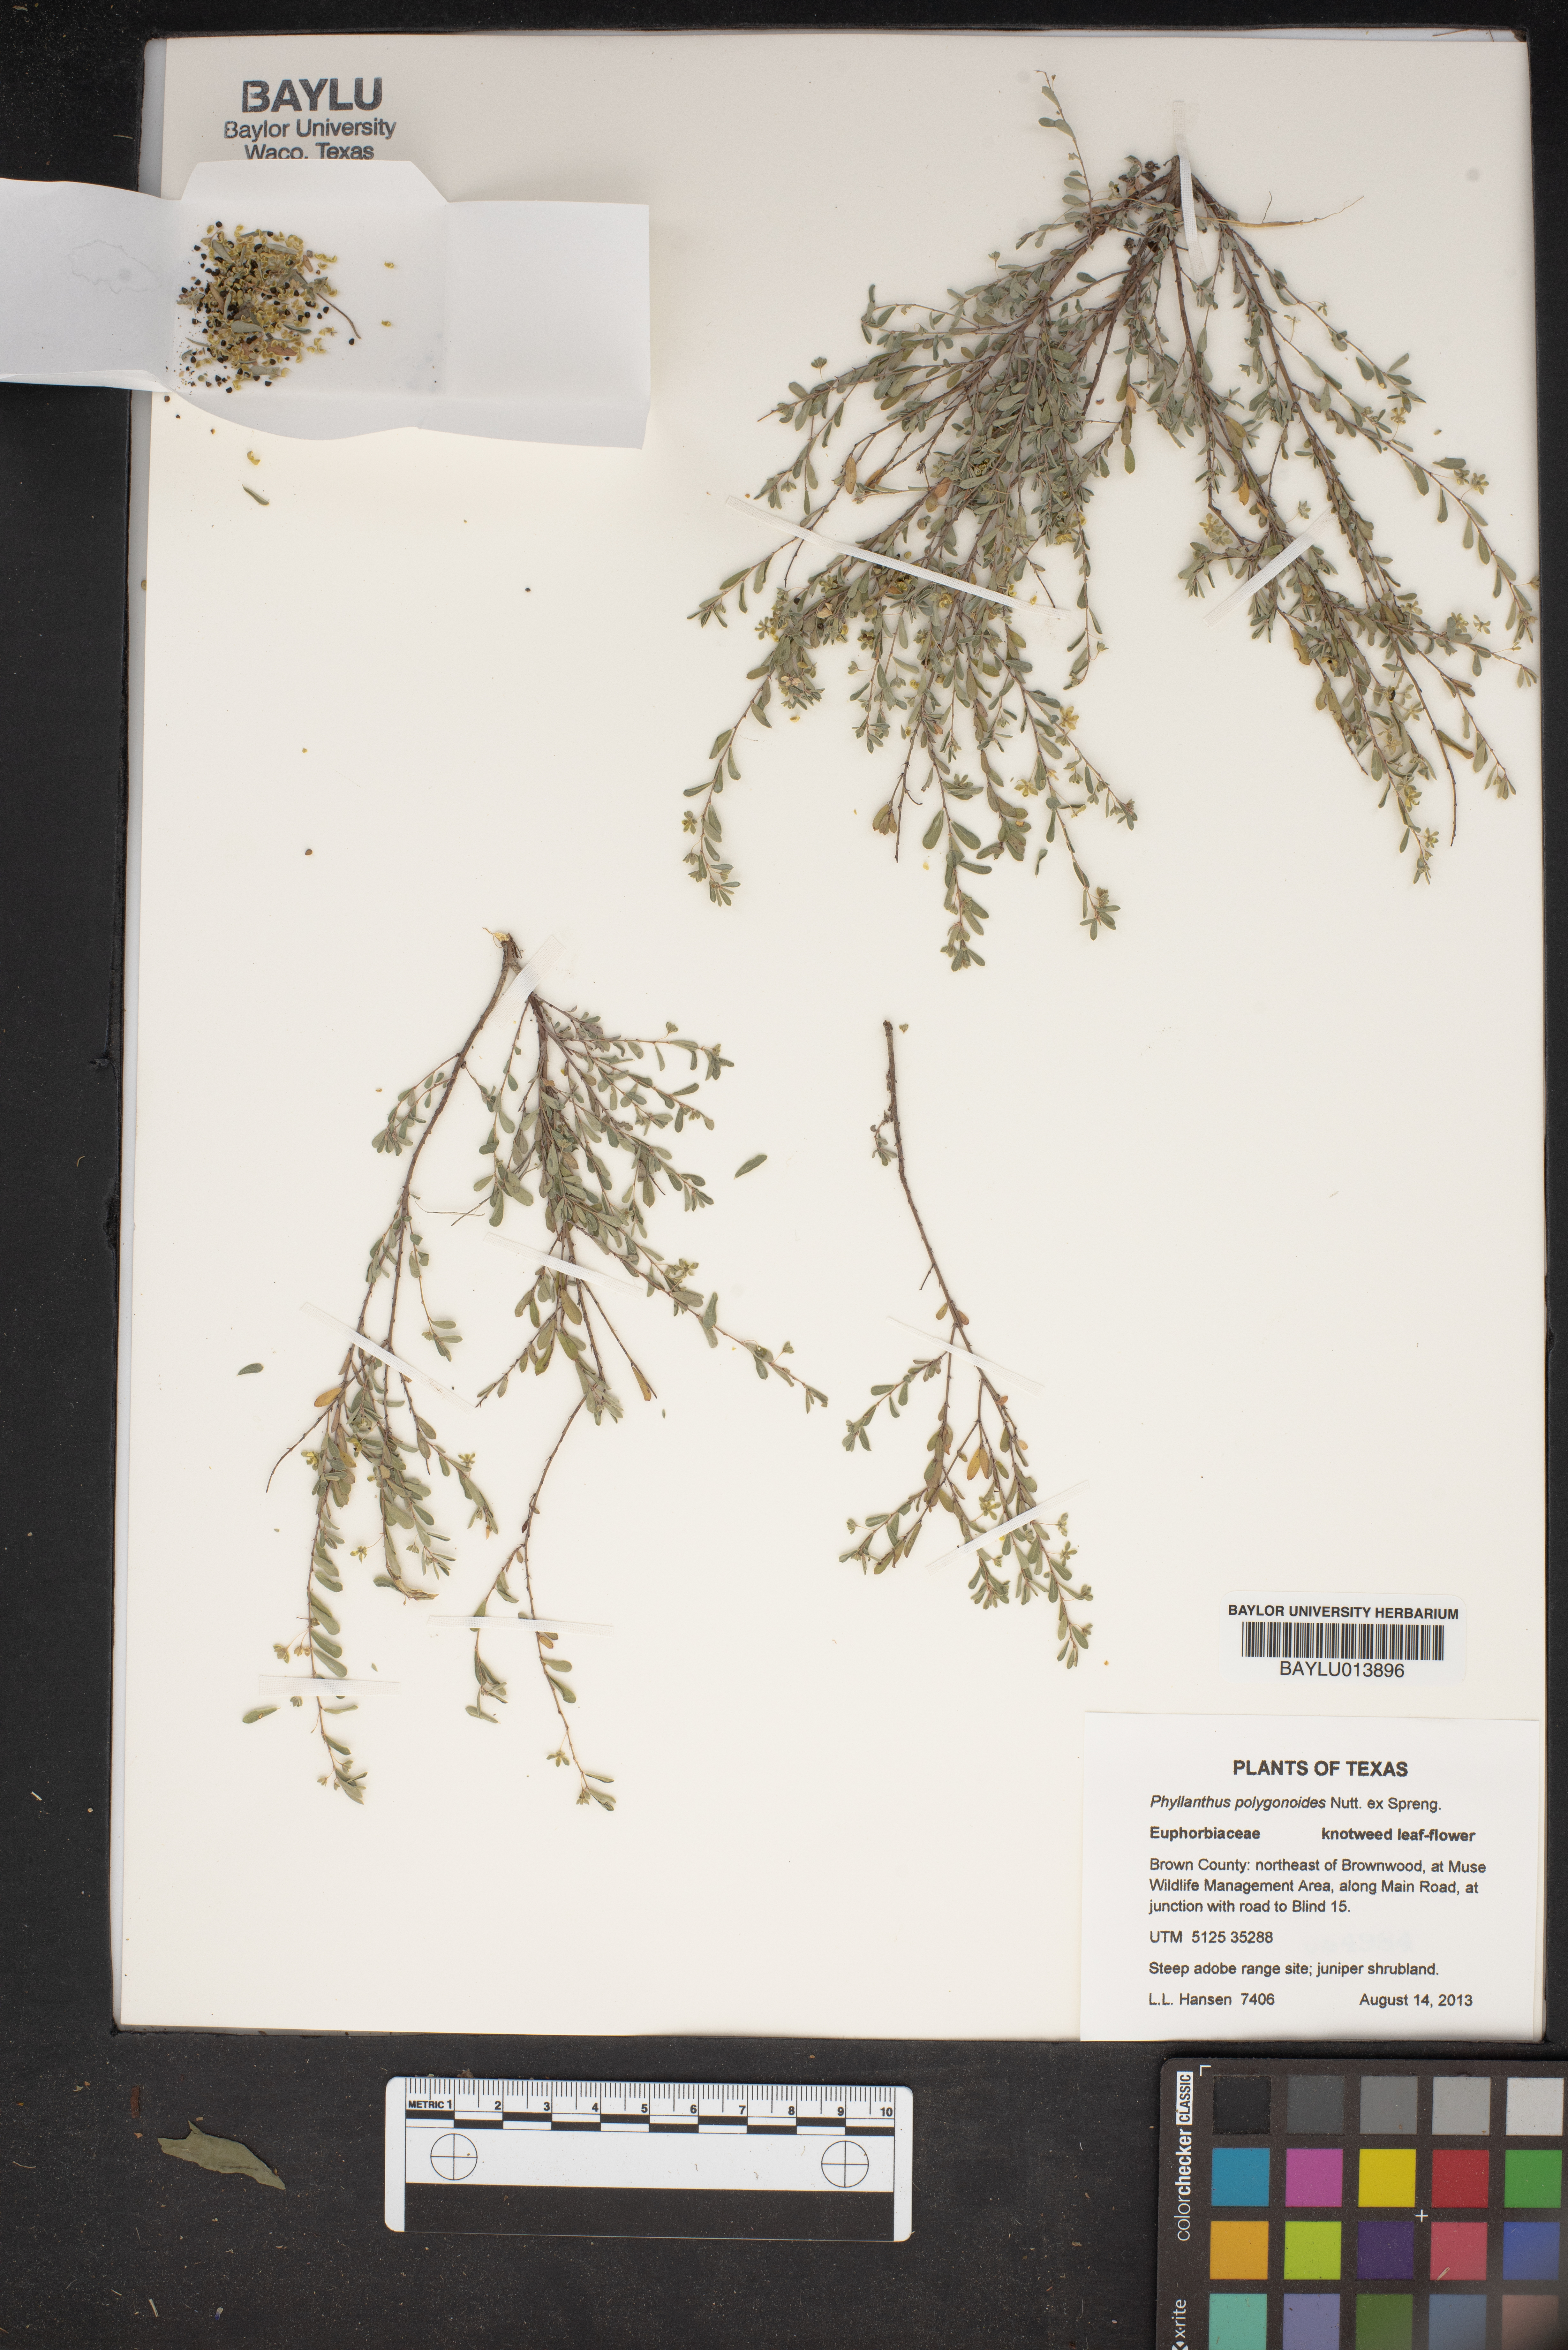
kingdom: Plantae
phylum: Tracheophyta
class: Magnoliopsida
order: Malpighiales
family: Phyllanthaceae
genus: Phyllanthus
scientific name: Phyllanthus polygonoides
